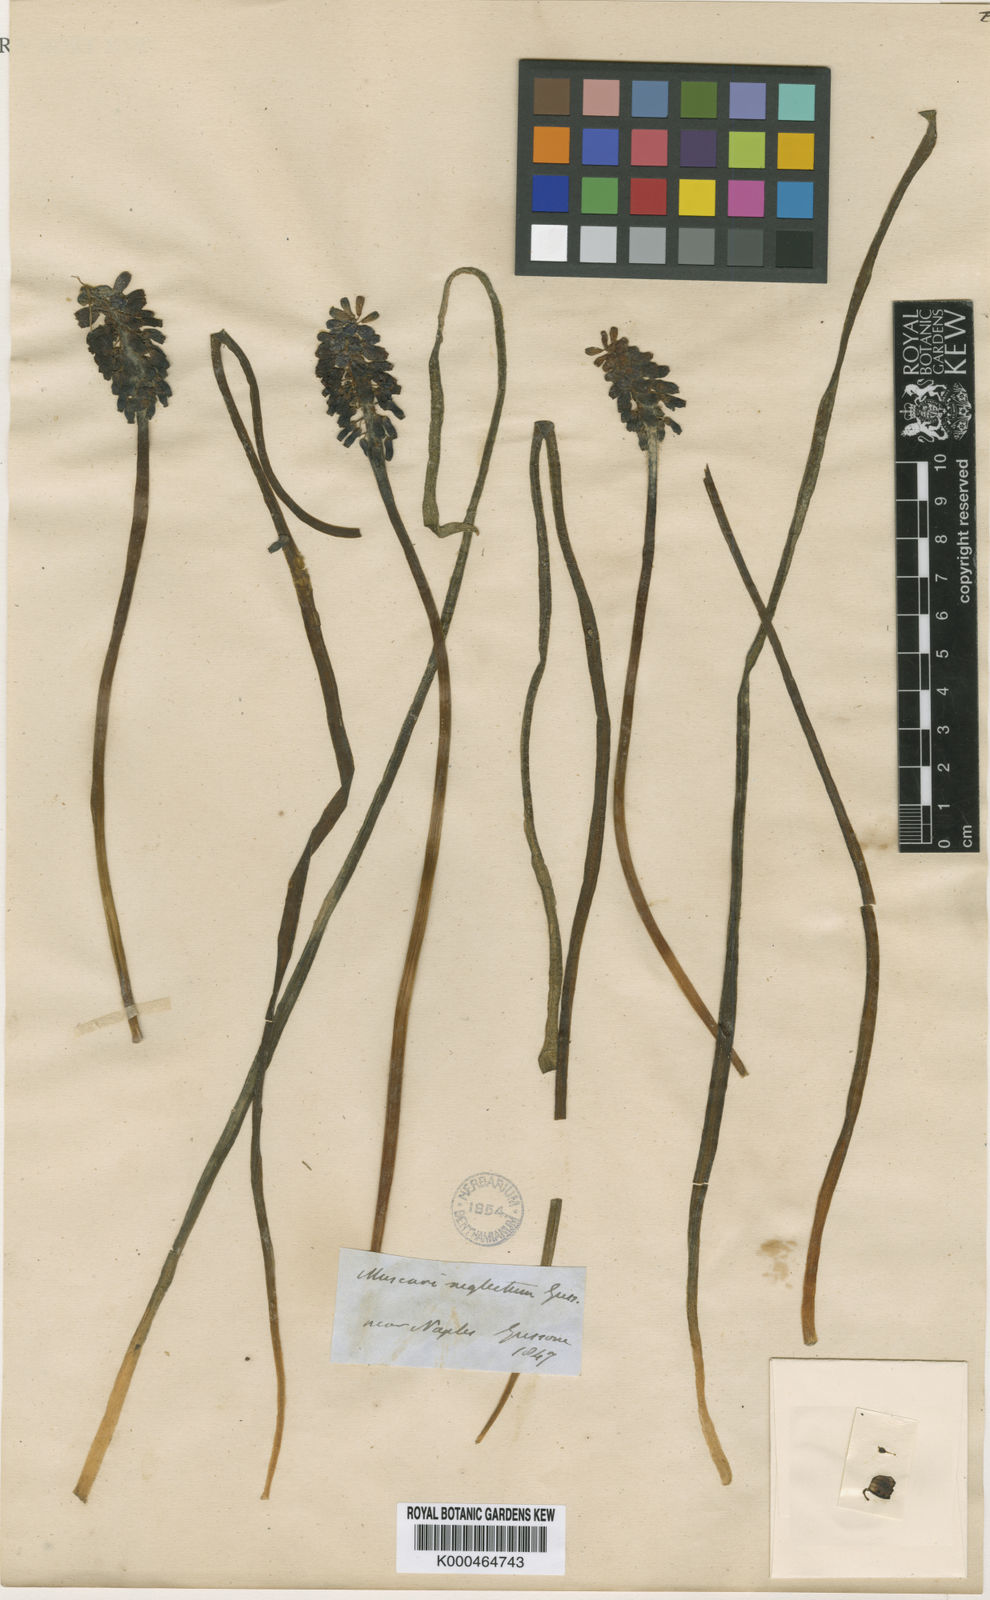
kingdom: Plantae
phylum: Tracheophyta
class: Liliopsida
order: Asparagales
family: Asparagaceae
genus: Muscari
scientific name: Muscari neglectum
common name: Grape-hyacinth
